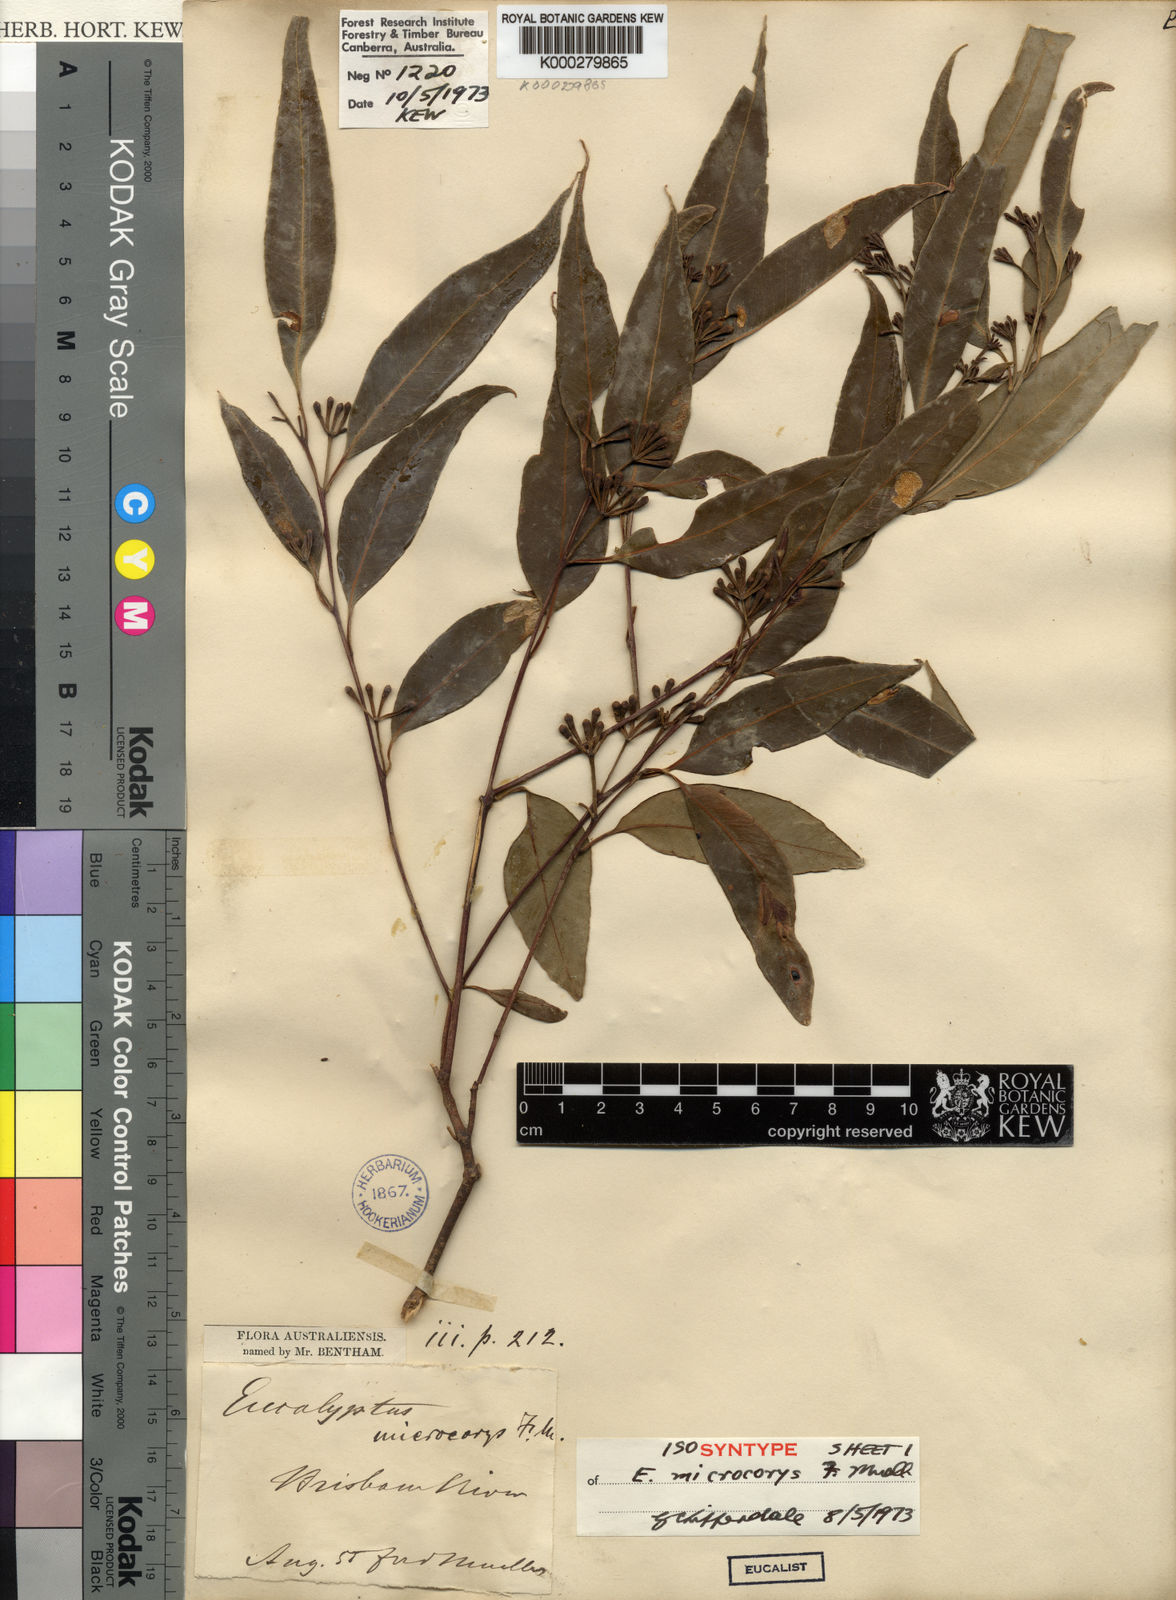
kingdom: Plantae
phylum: Tracheophyta
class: Magnoliopsida
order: Myrtales
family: Myrtaceae
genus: Eucalyptus
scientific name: Eucalyptus microcorys
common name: Tallowwood
